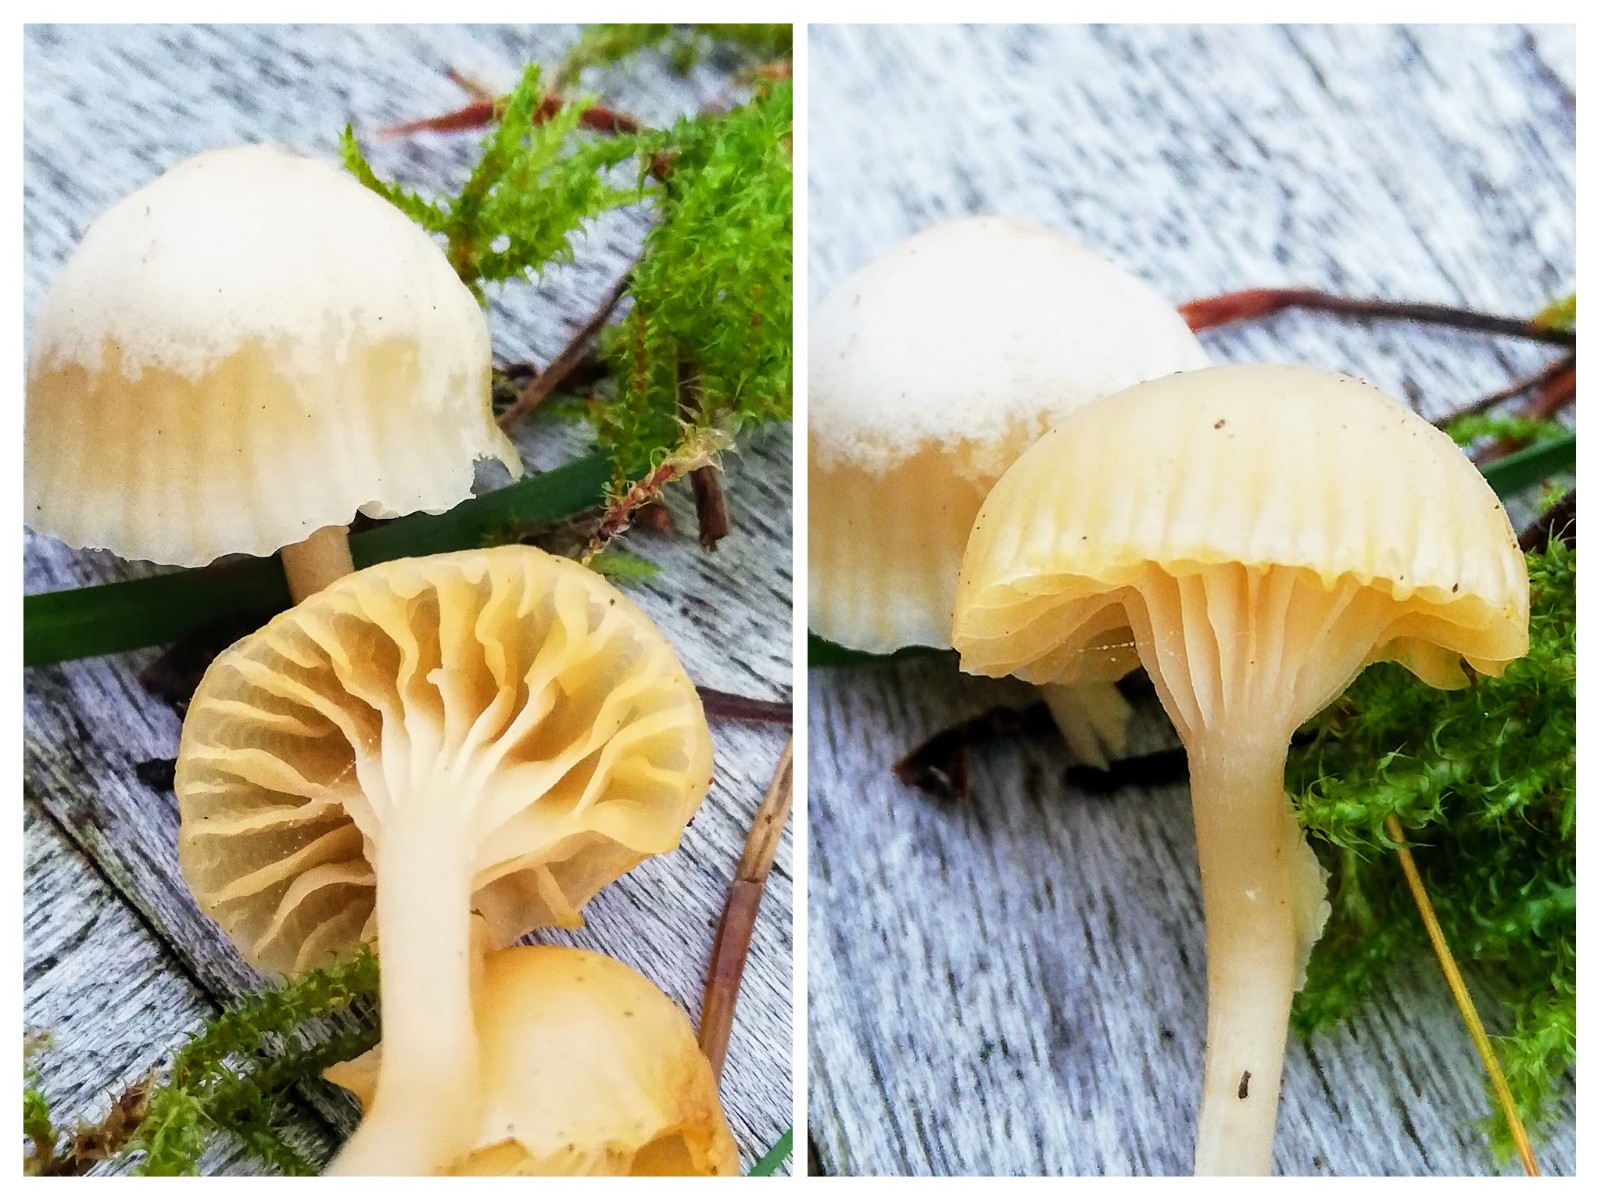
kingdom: Fungi
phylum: Basidiomycota
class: Agaricomycetes
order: Agaricales
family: Hygrophoraceae
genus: Cuphophyllus
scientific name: Cuphophyllus
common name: vokshat
